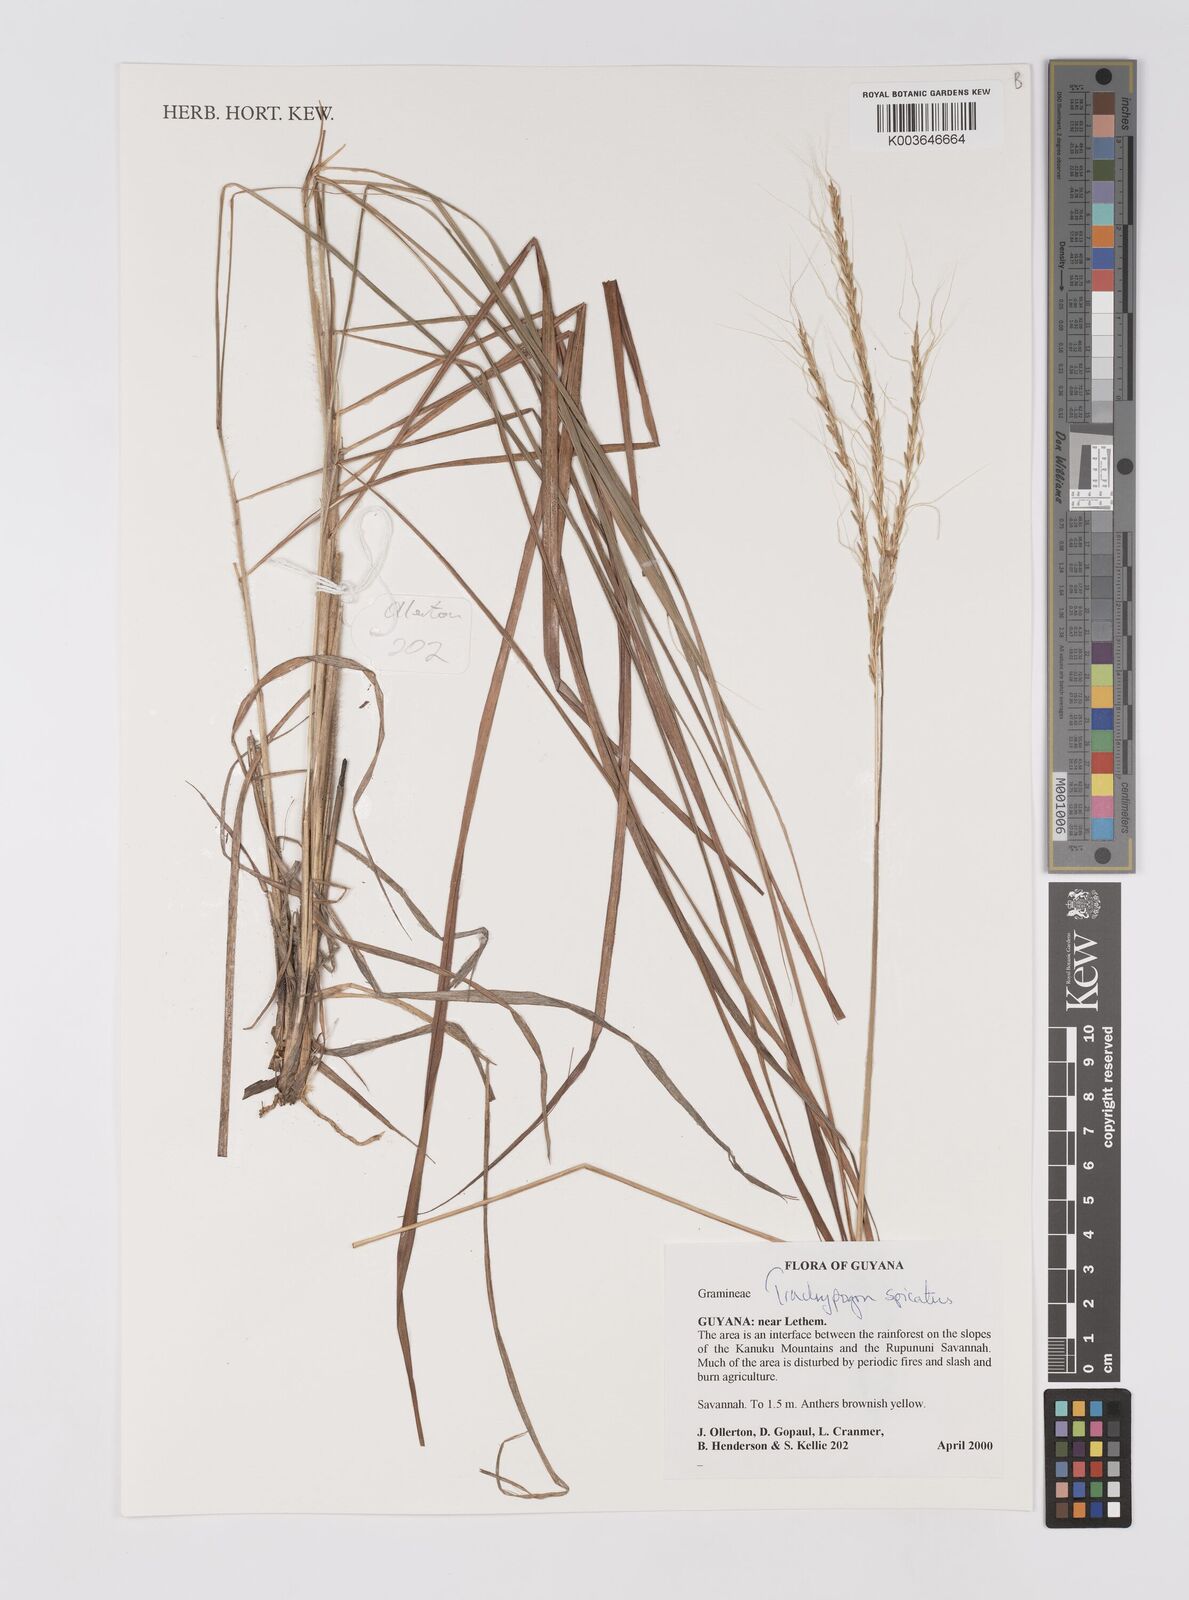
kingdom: Plantae
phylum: Tracheophyta
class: Liliopsida
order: Poales
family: Poaceae
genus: Trachypogon
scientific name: Trachypogon spicatus
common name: Crinkle-awn
